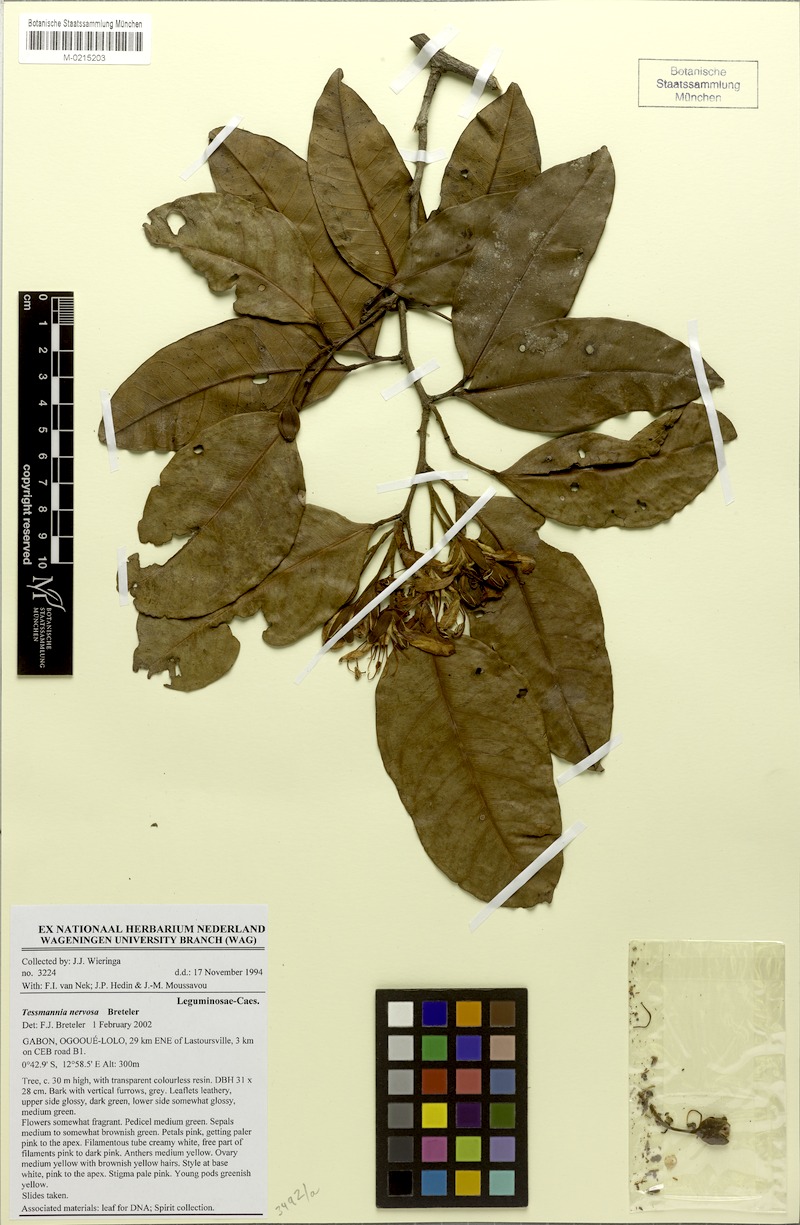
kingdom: Plantae
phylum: Tracheophyta
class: Magnoliopsida
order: Fabales
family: Fabaceae
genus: Tessmannia
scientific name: Tessmannia nervosa
